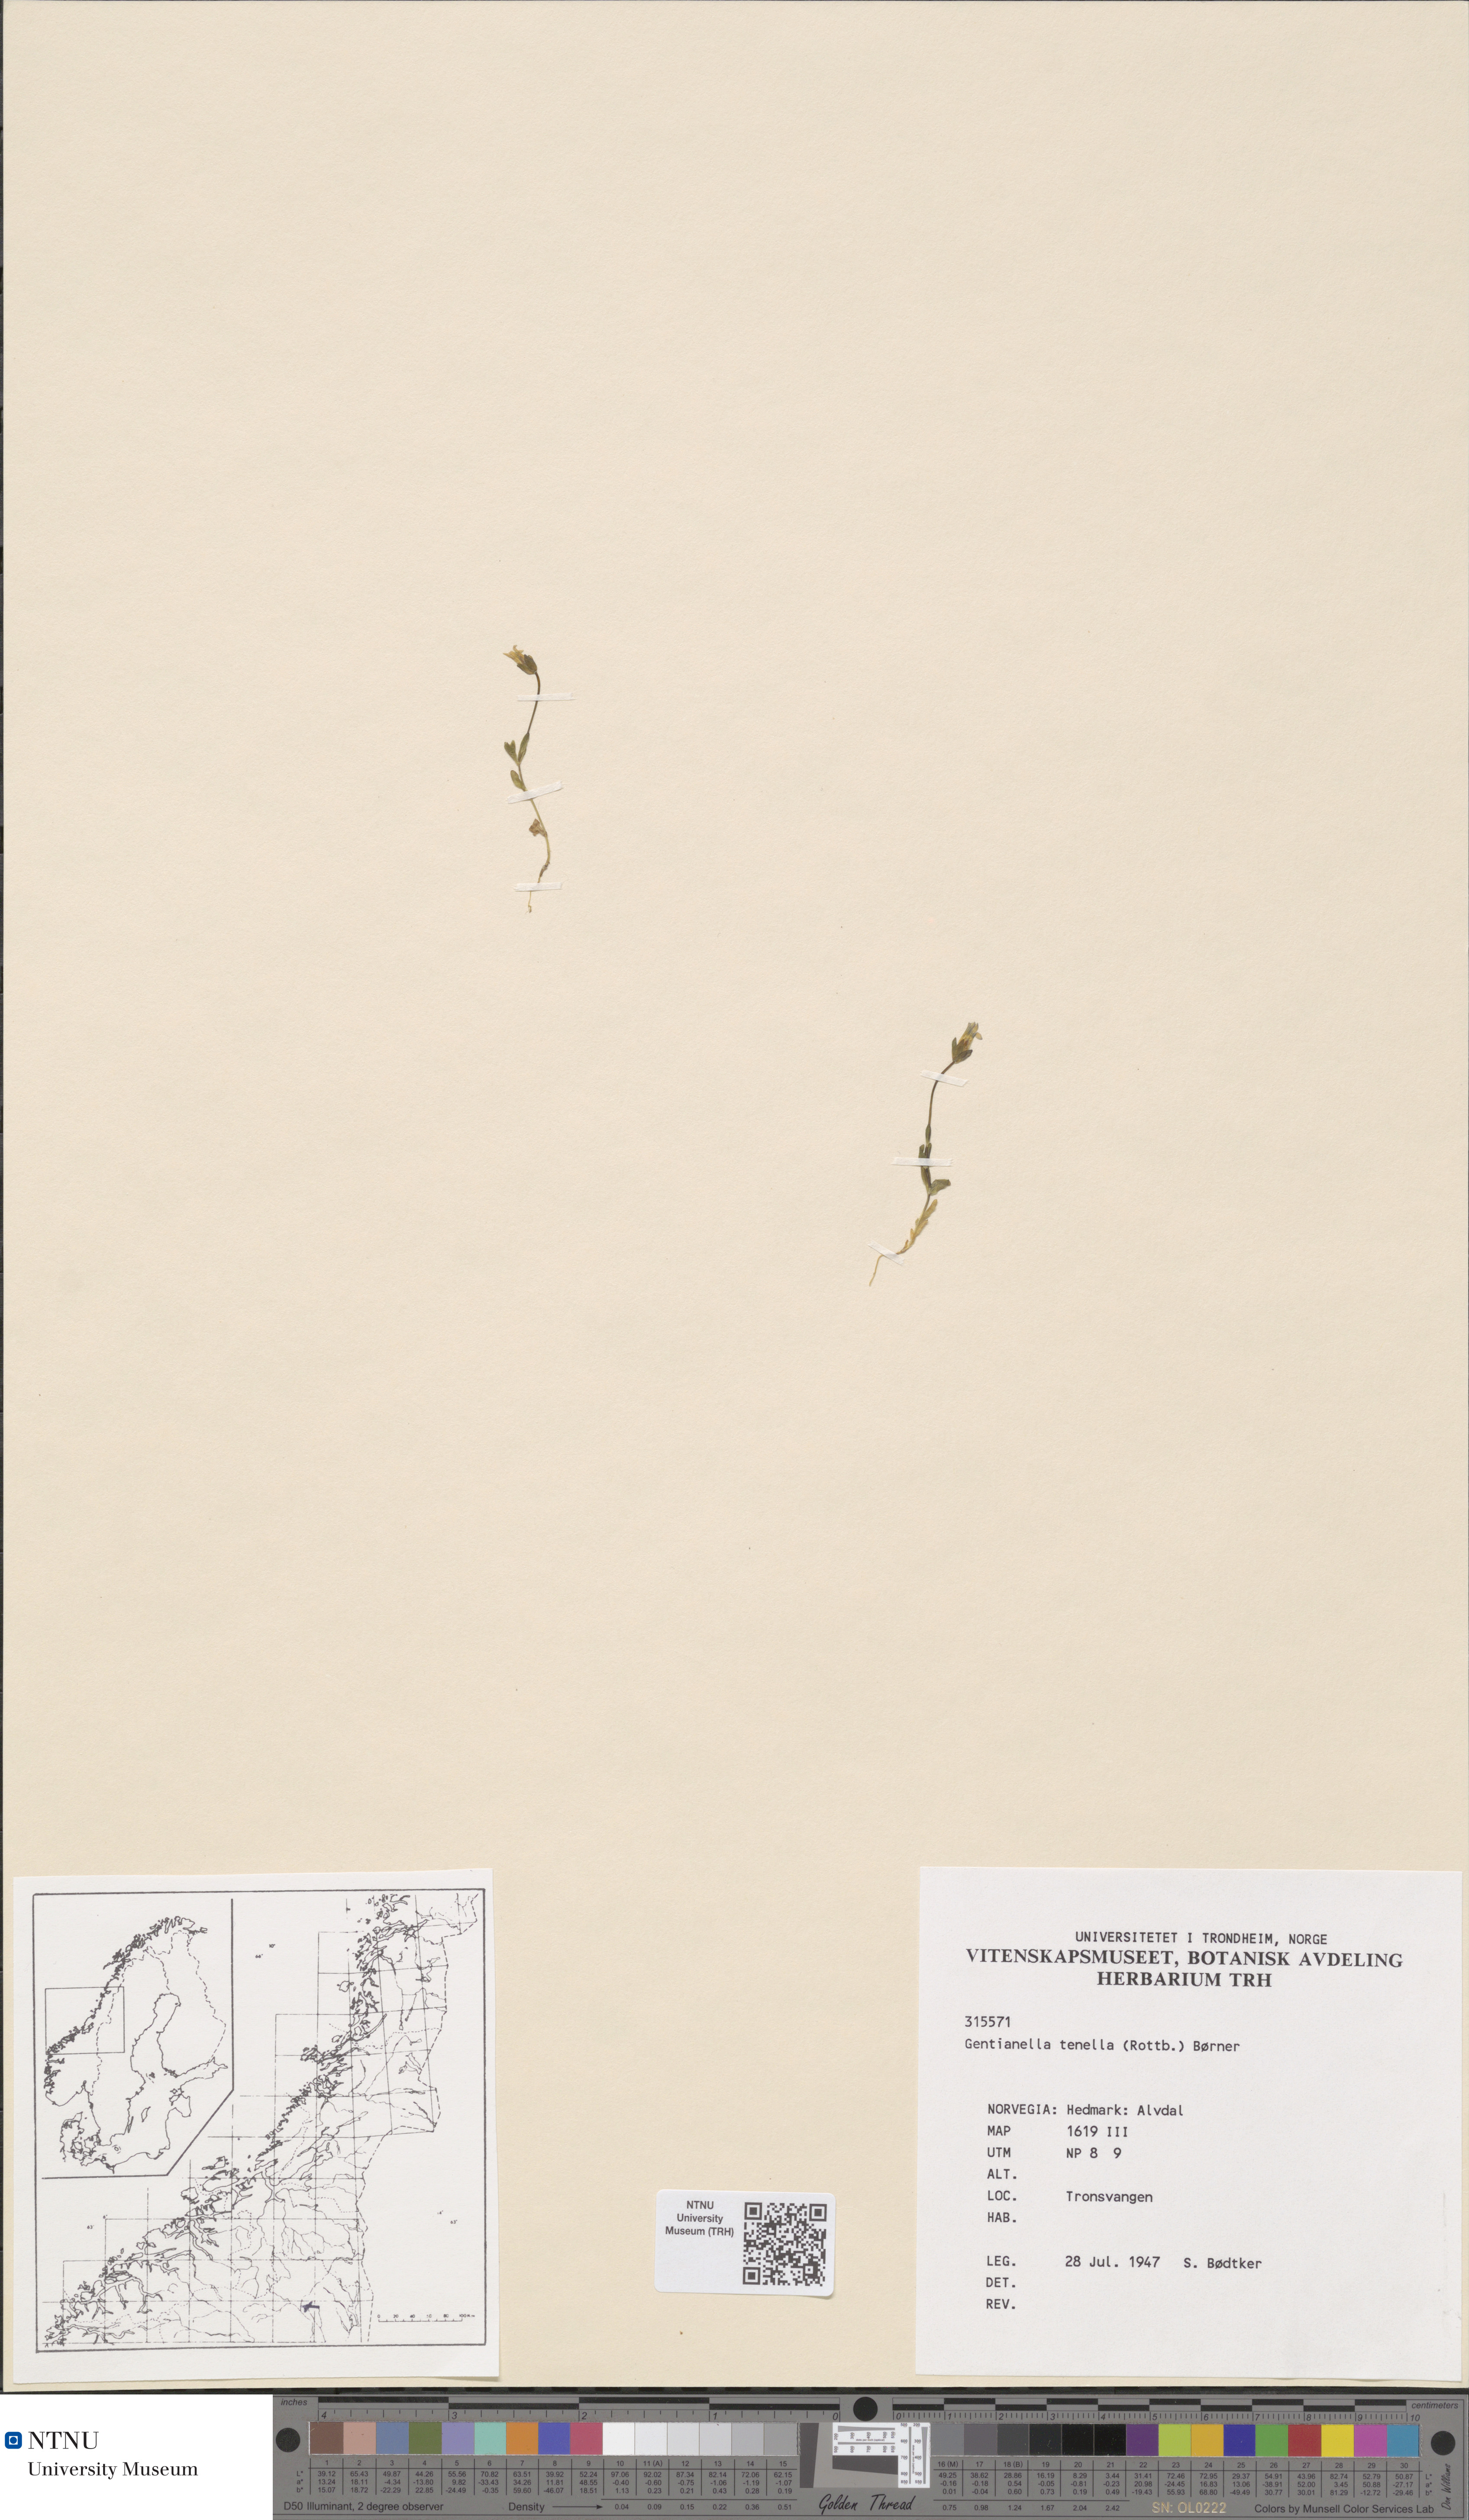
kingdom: Plantae
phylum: Tracheophyta
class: Magnoliopsida
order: Gentianales
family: Gentianaceae
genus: Comastoma
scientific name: Comastoma tenellum
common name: Dane's dwarf gentian
